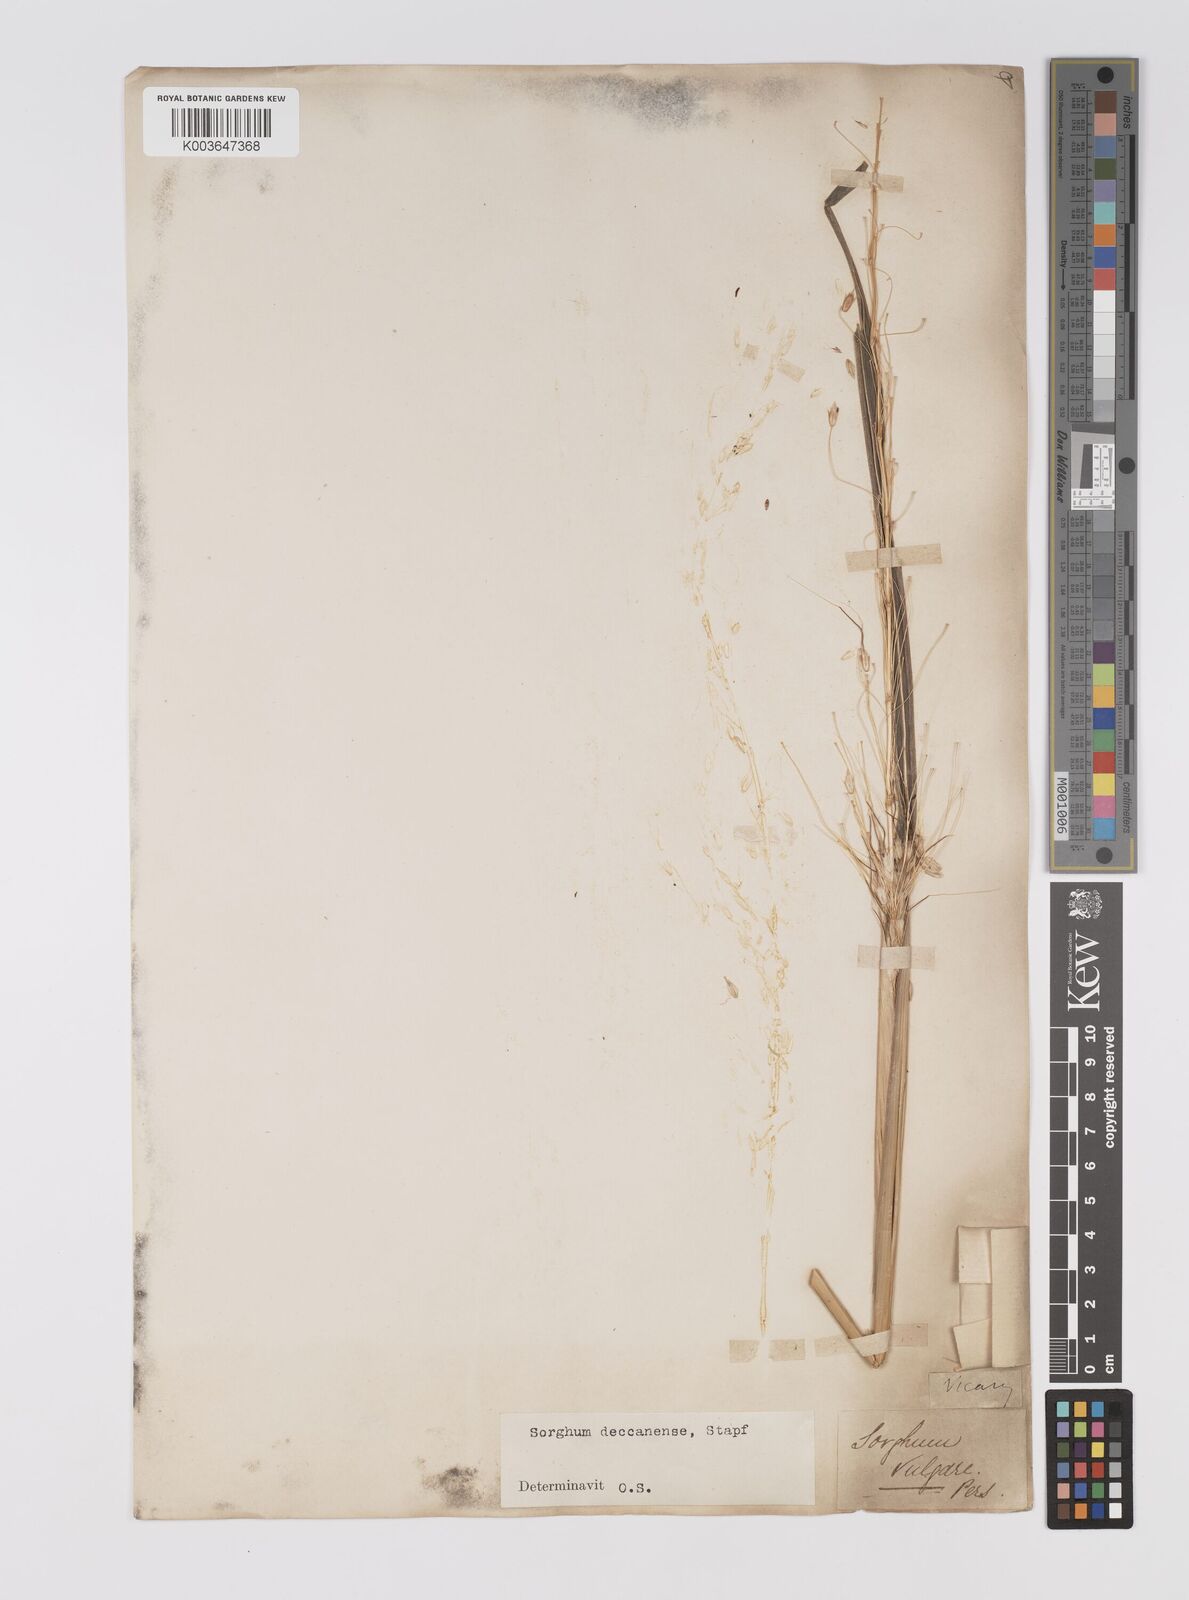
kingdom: Plantae
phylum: Tracheophyta
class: Liliopsida
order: Poales
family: Poaceae
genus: Sarga
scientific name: Sarga purpureosericea
